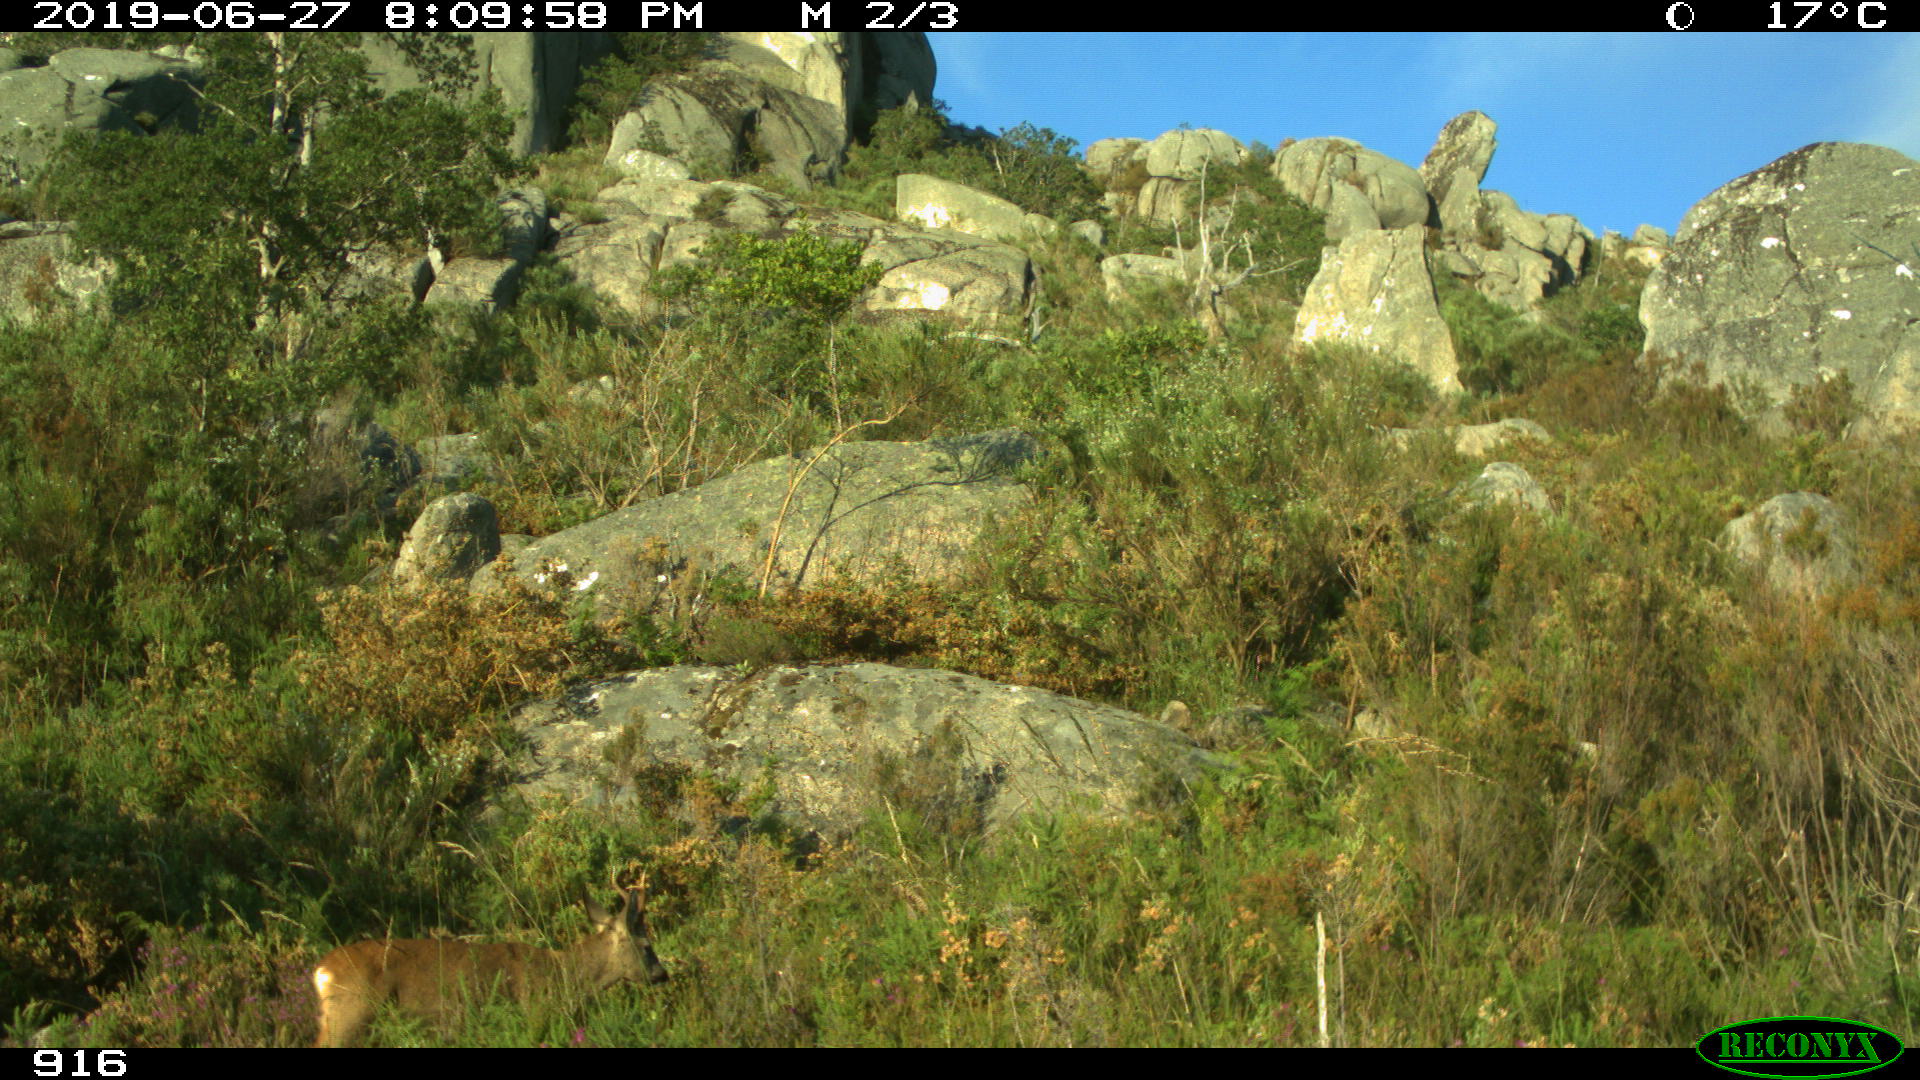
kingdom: Animalia
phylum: Chordata
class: Mammalia
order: Artiodactyla
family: Cervidae
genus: Capreolus
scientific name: Capreolus capreolus
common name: Western roe deer
